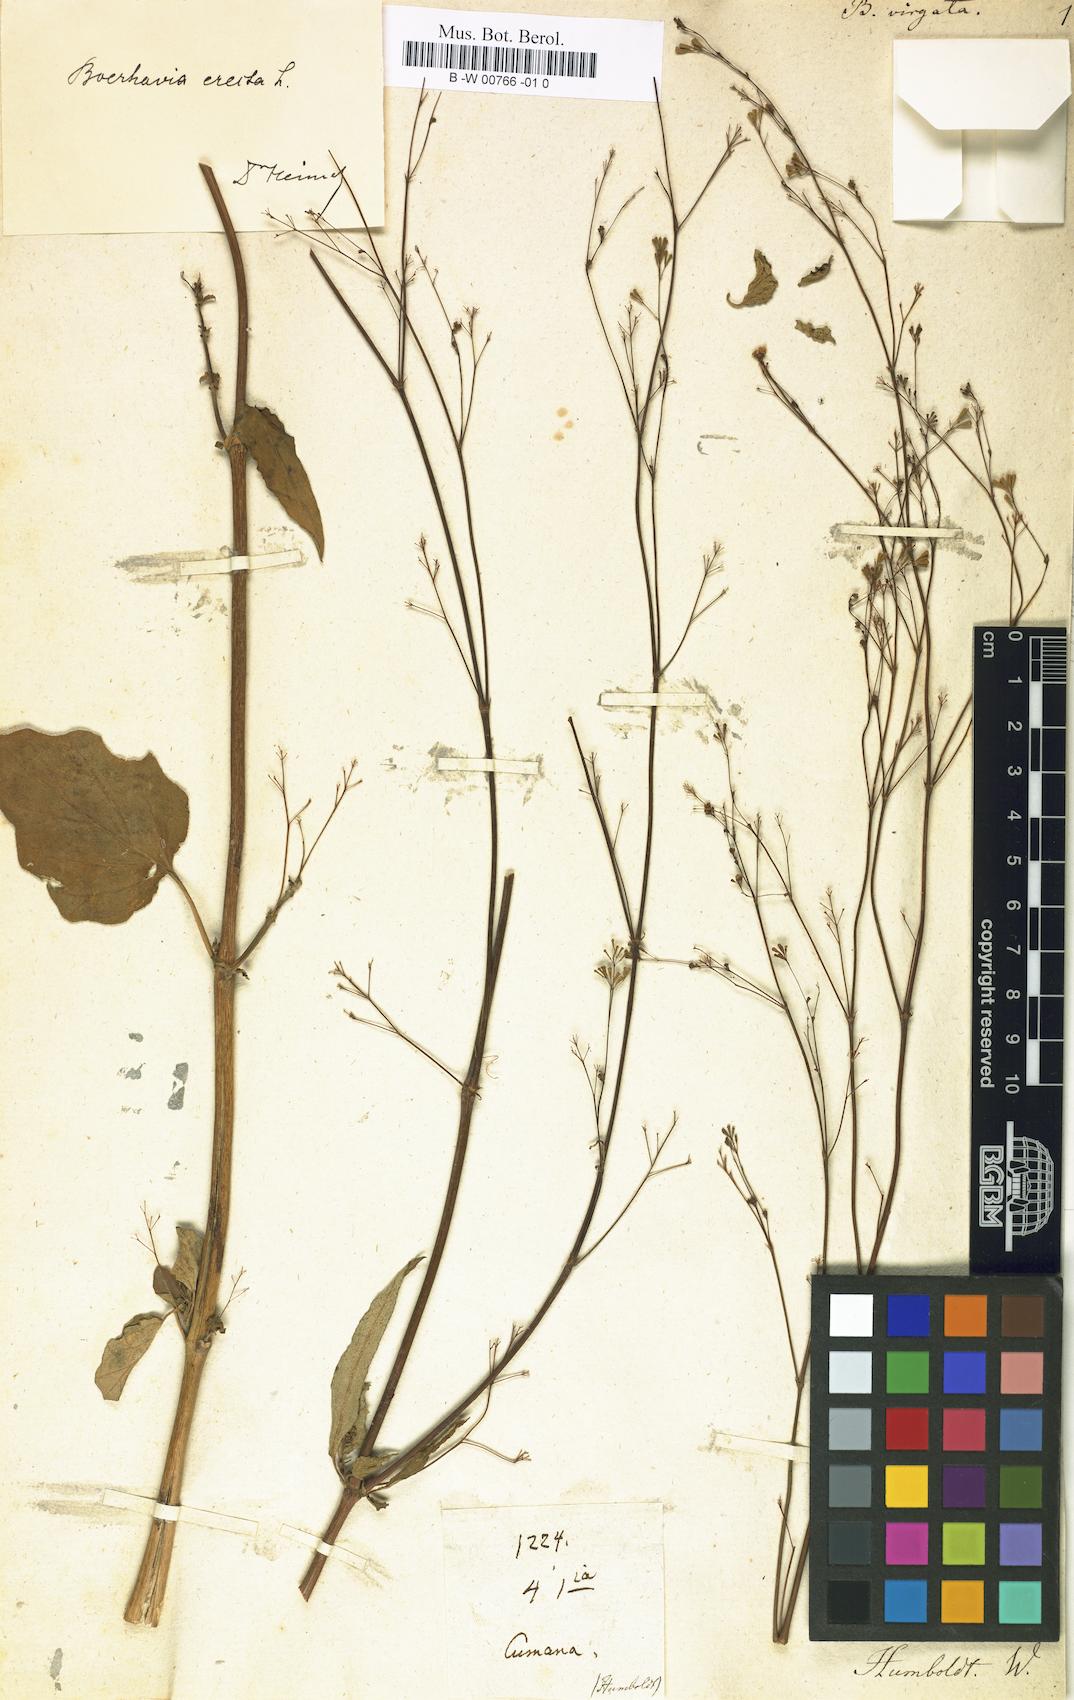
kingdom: Plantae
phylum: Tracheophyta
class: Magnoliopsida
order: Caryophyllales
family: Nyctaginaceae
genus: Boerhavia
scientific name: Boerhavia erecta
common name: Erect spiderling
